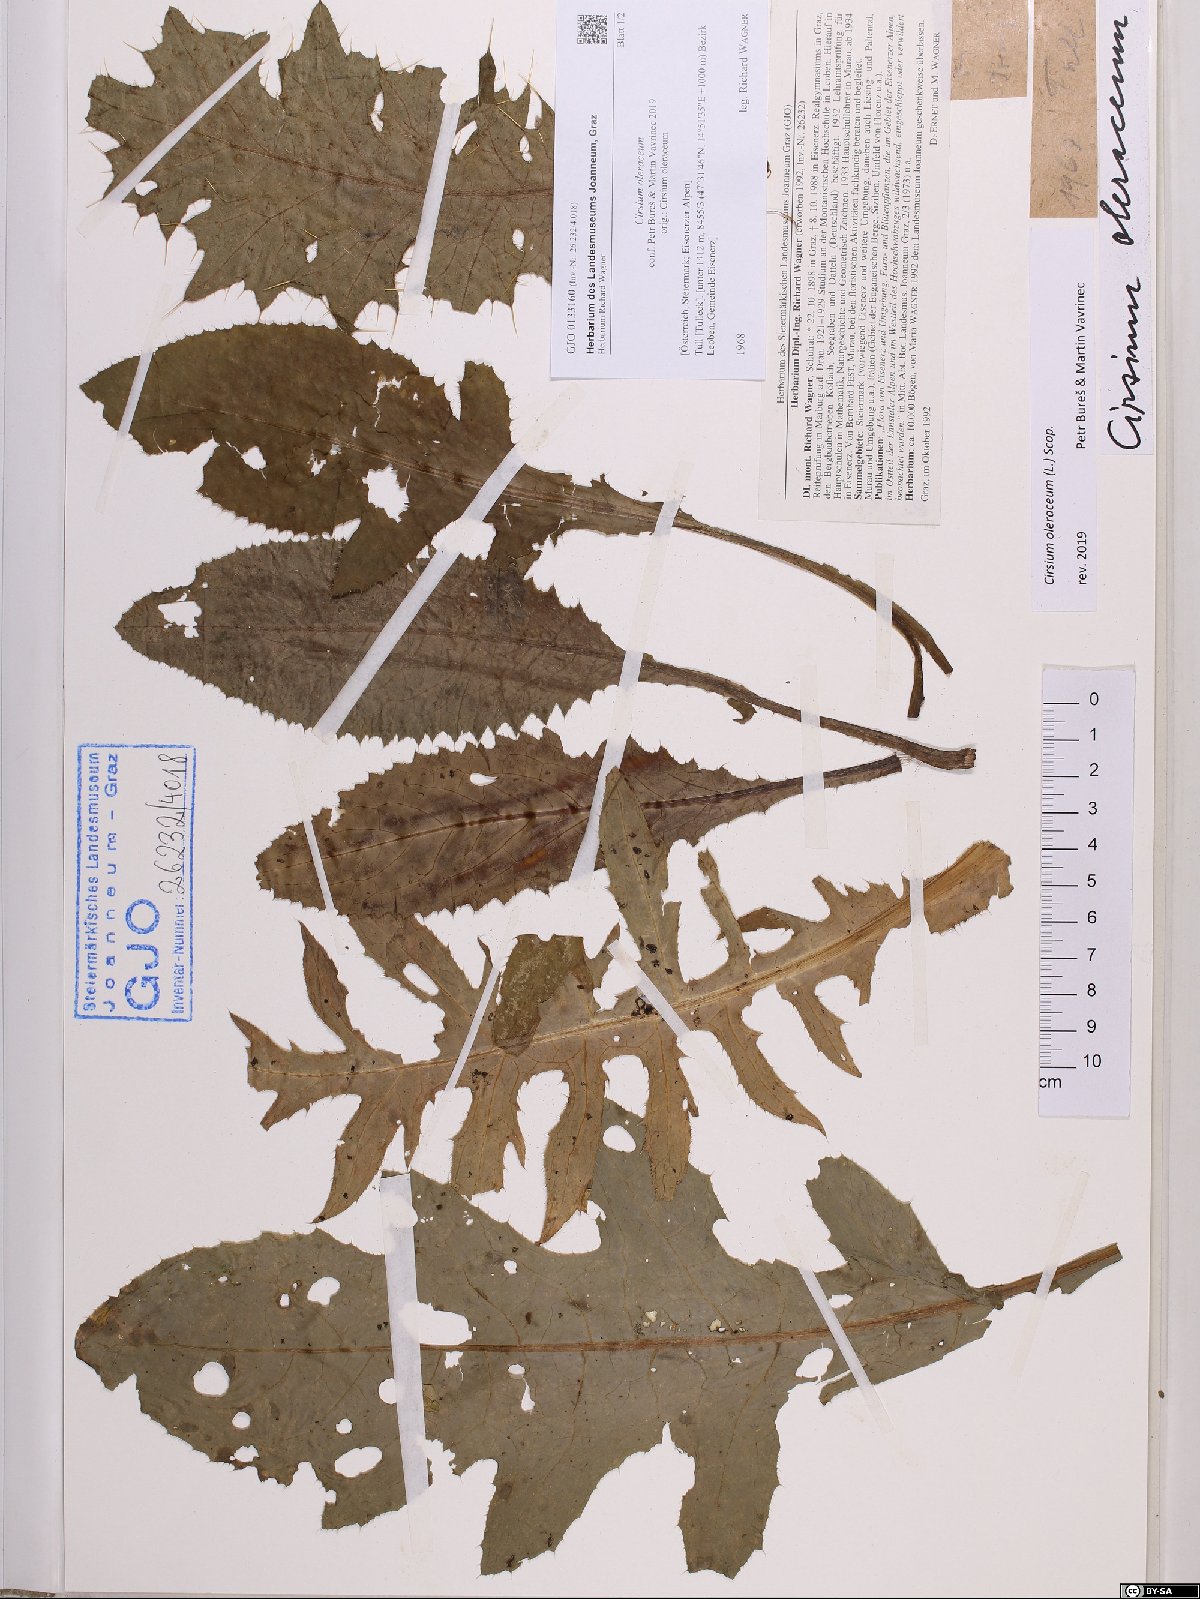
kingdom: Plantae
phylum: Tracheophyta
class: Magnoliopsida
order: Asterales
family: Asteraceae
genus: Cirsium
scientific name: Cirsium oleraceum
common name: Cabbage thistle
